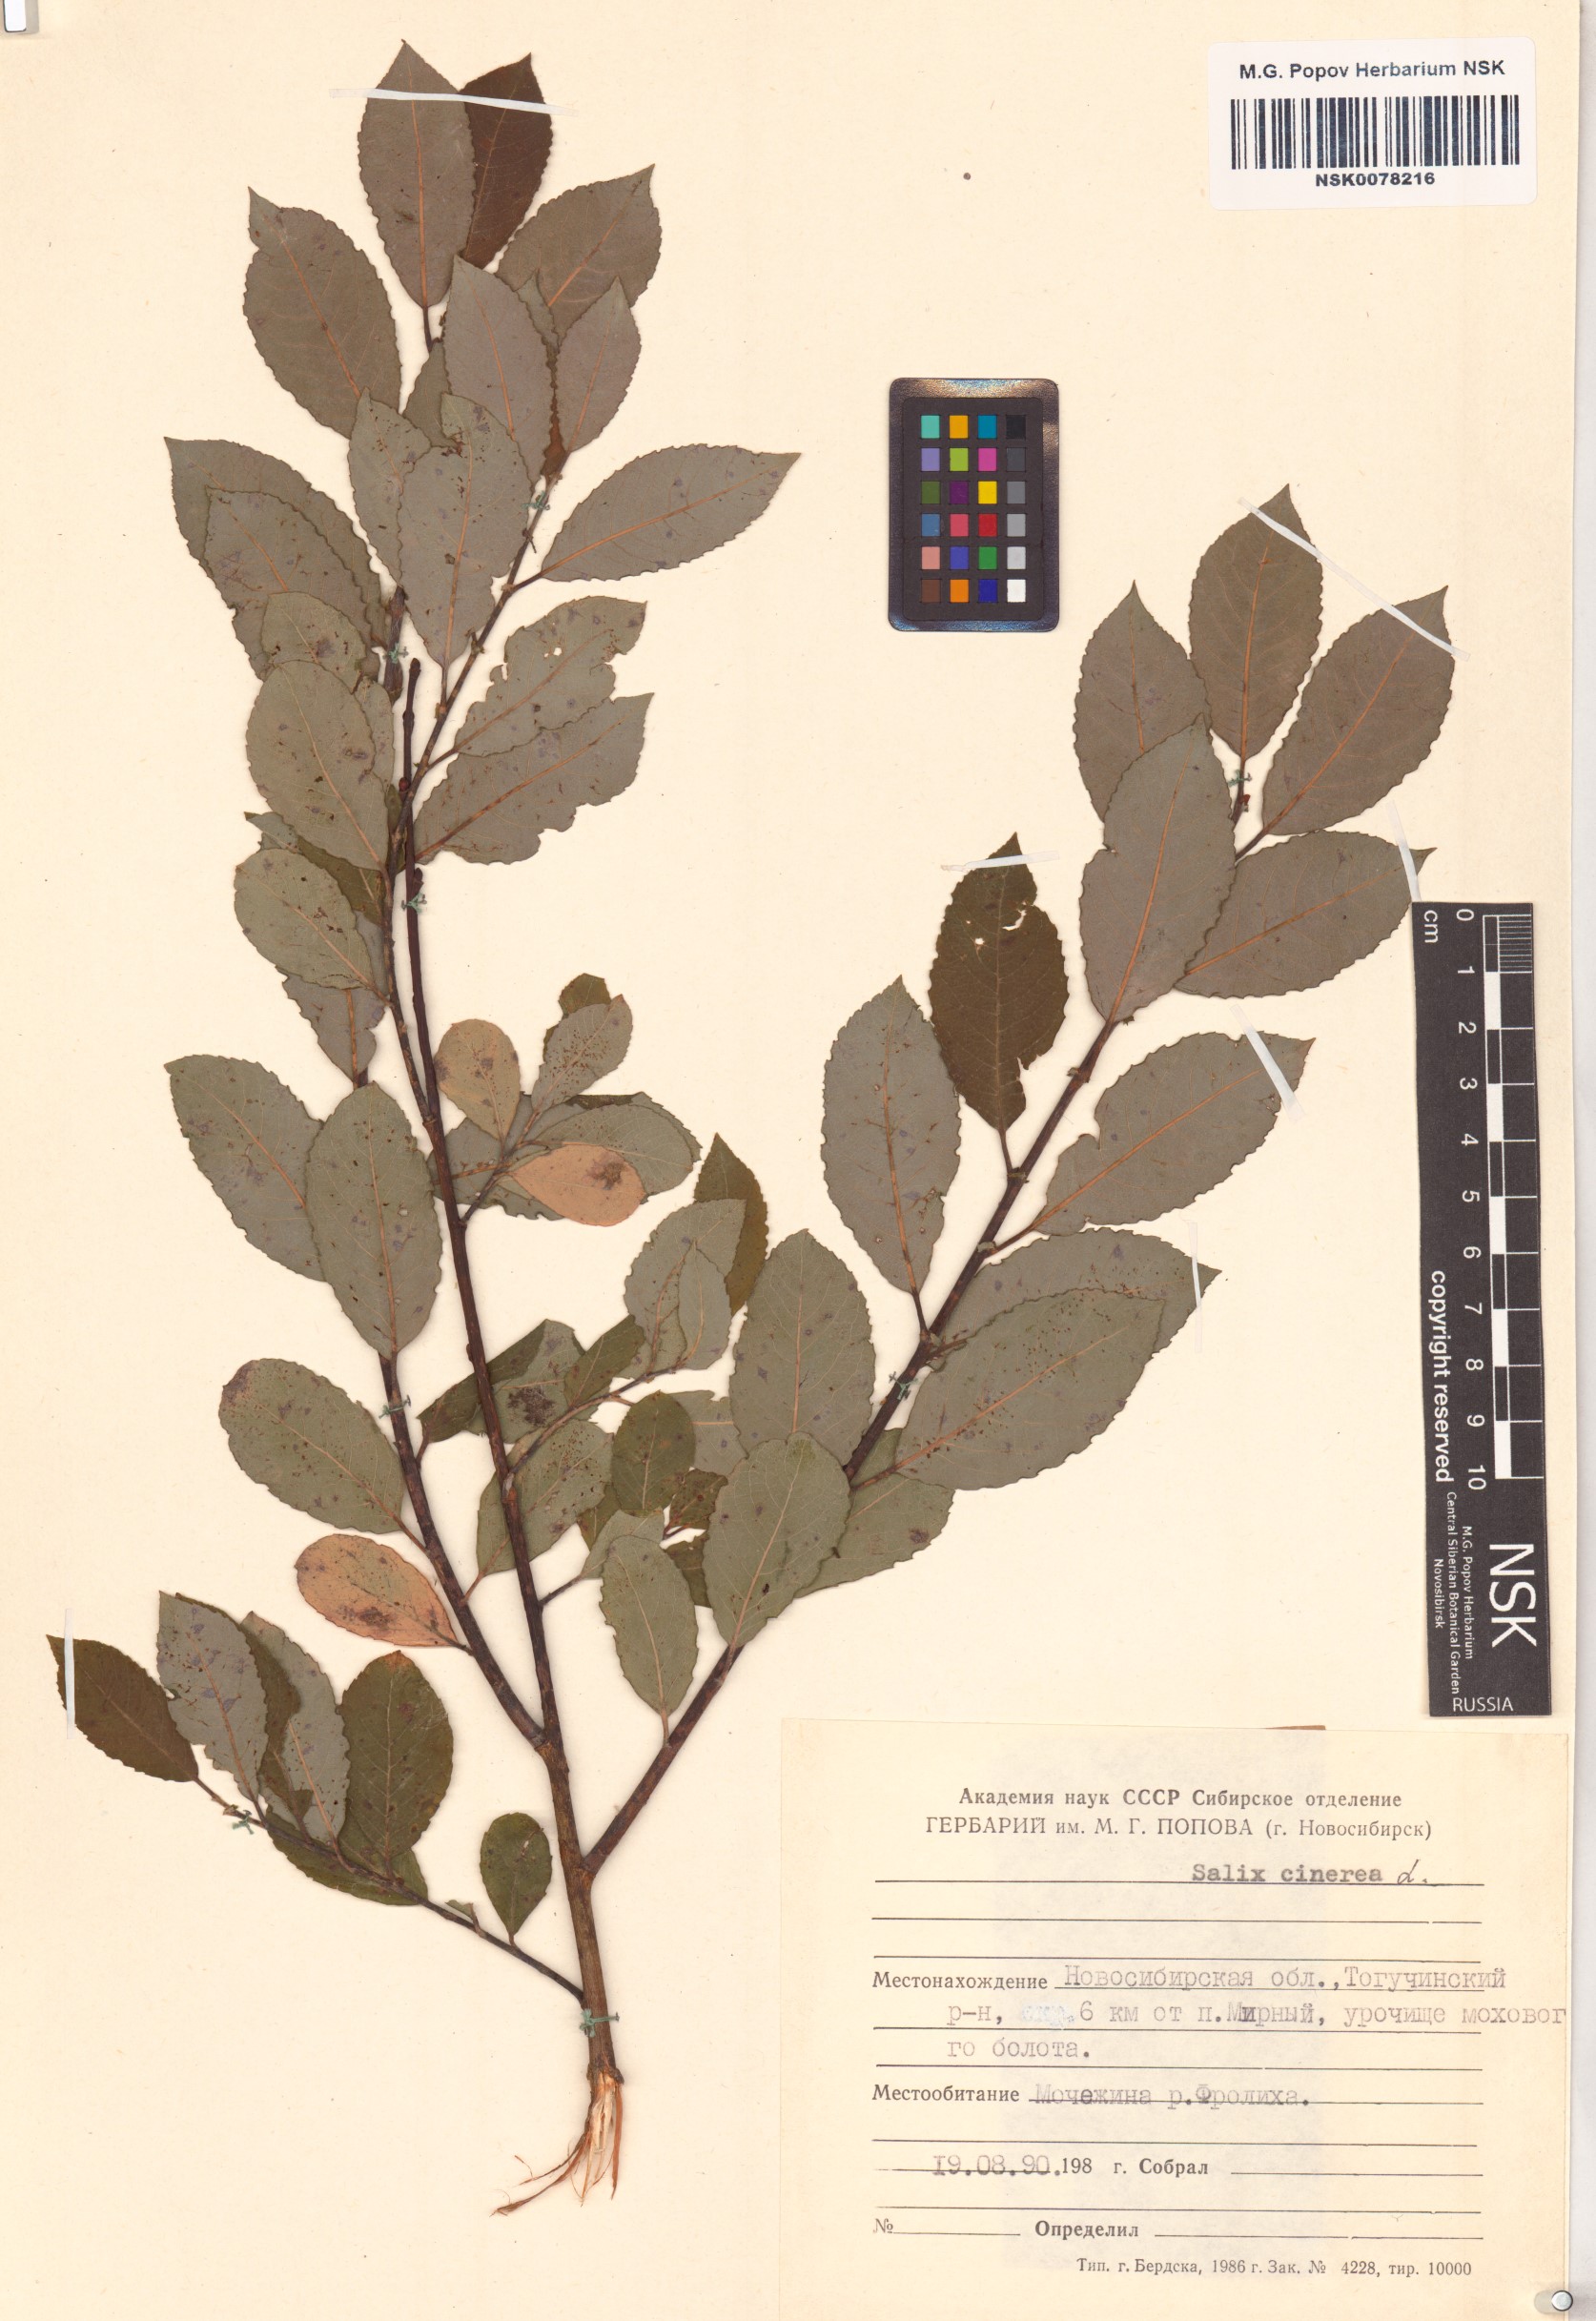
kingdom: Plantae
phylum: Tracheophyta
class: Magnoliopsida
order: Malpighiales
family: Salicaceae
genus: Salix
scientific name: Salix cinerea
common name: Common sallow
